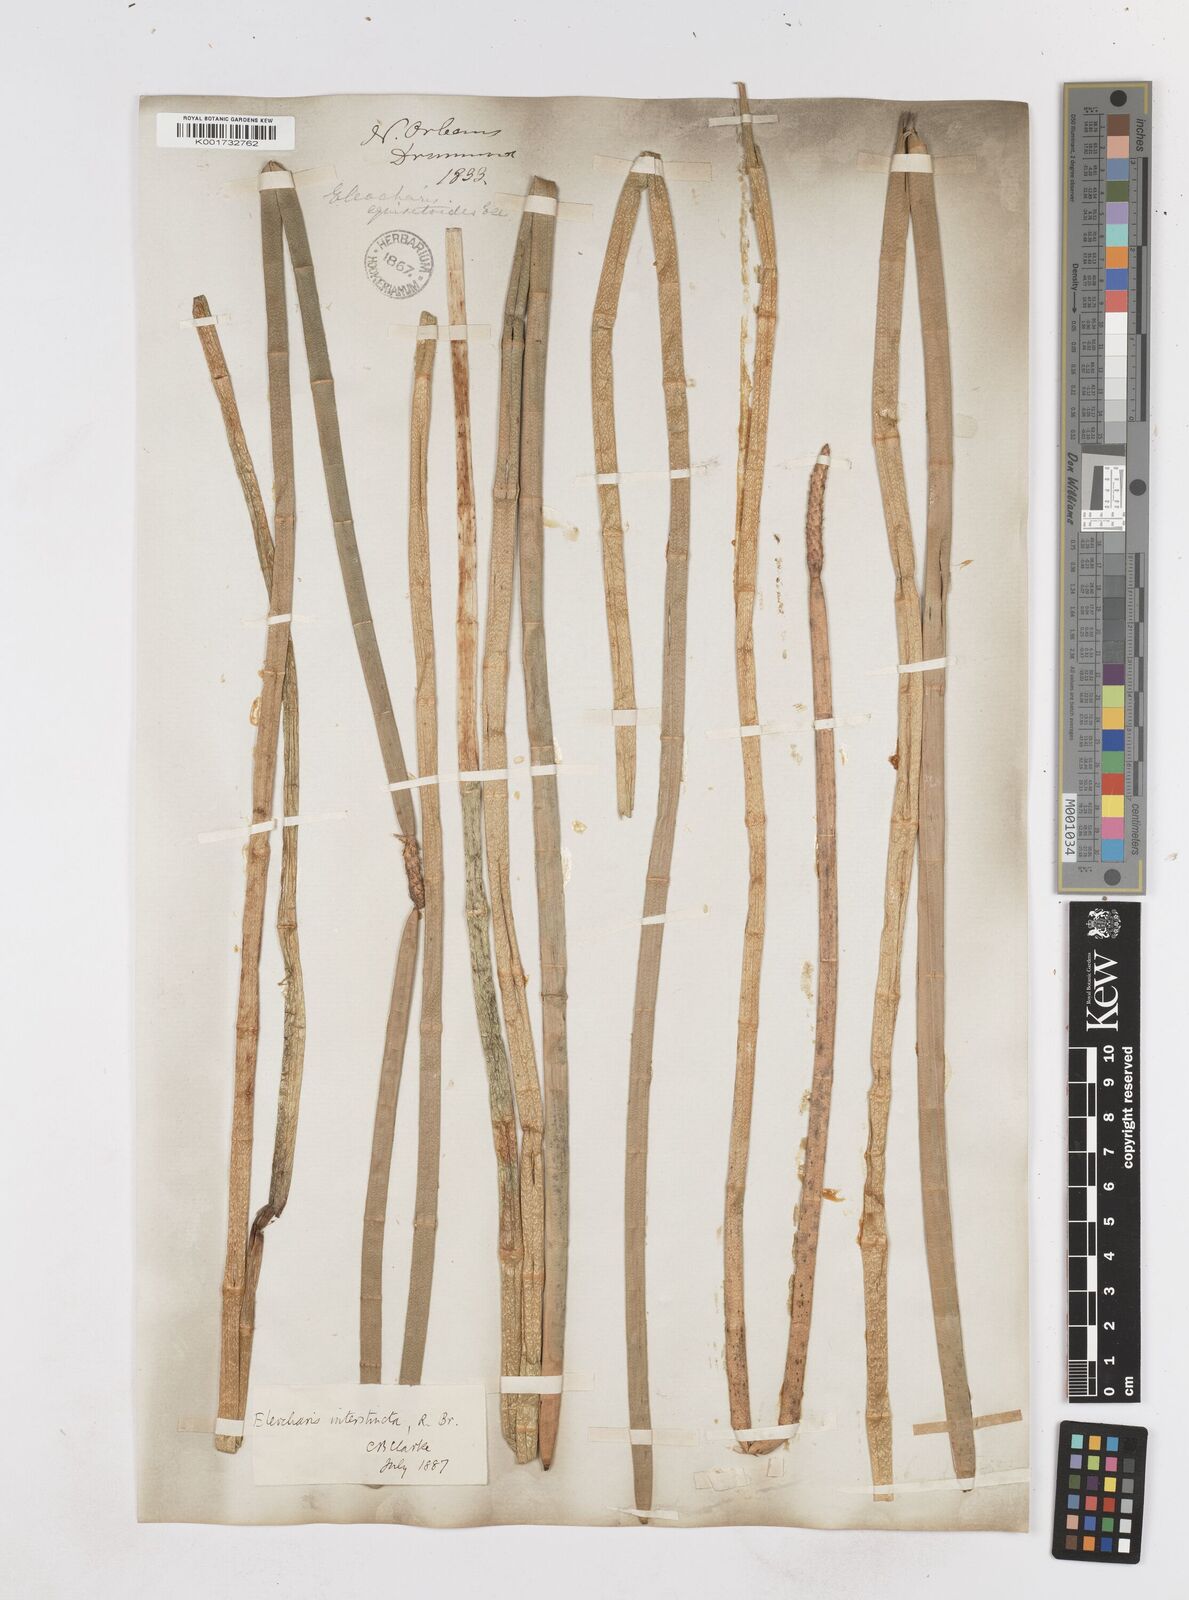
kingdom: Plantae
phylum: Tracheophyta
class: Liliopsida
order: Poales
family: Cyperaceae
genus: Eleocharis
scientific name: Eleocharis equisetoides
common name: Horsetail spike-rush
